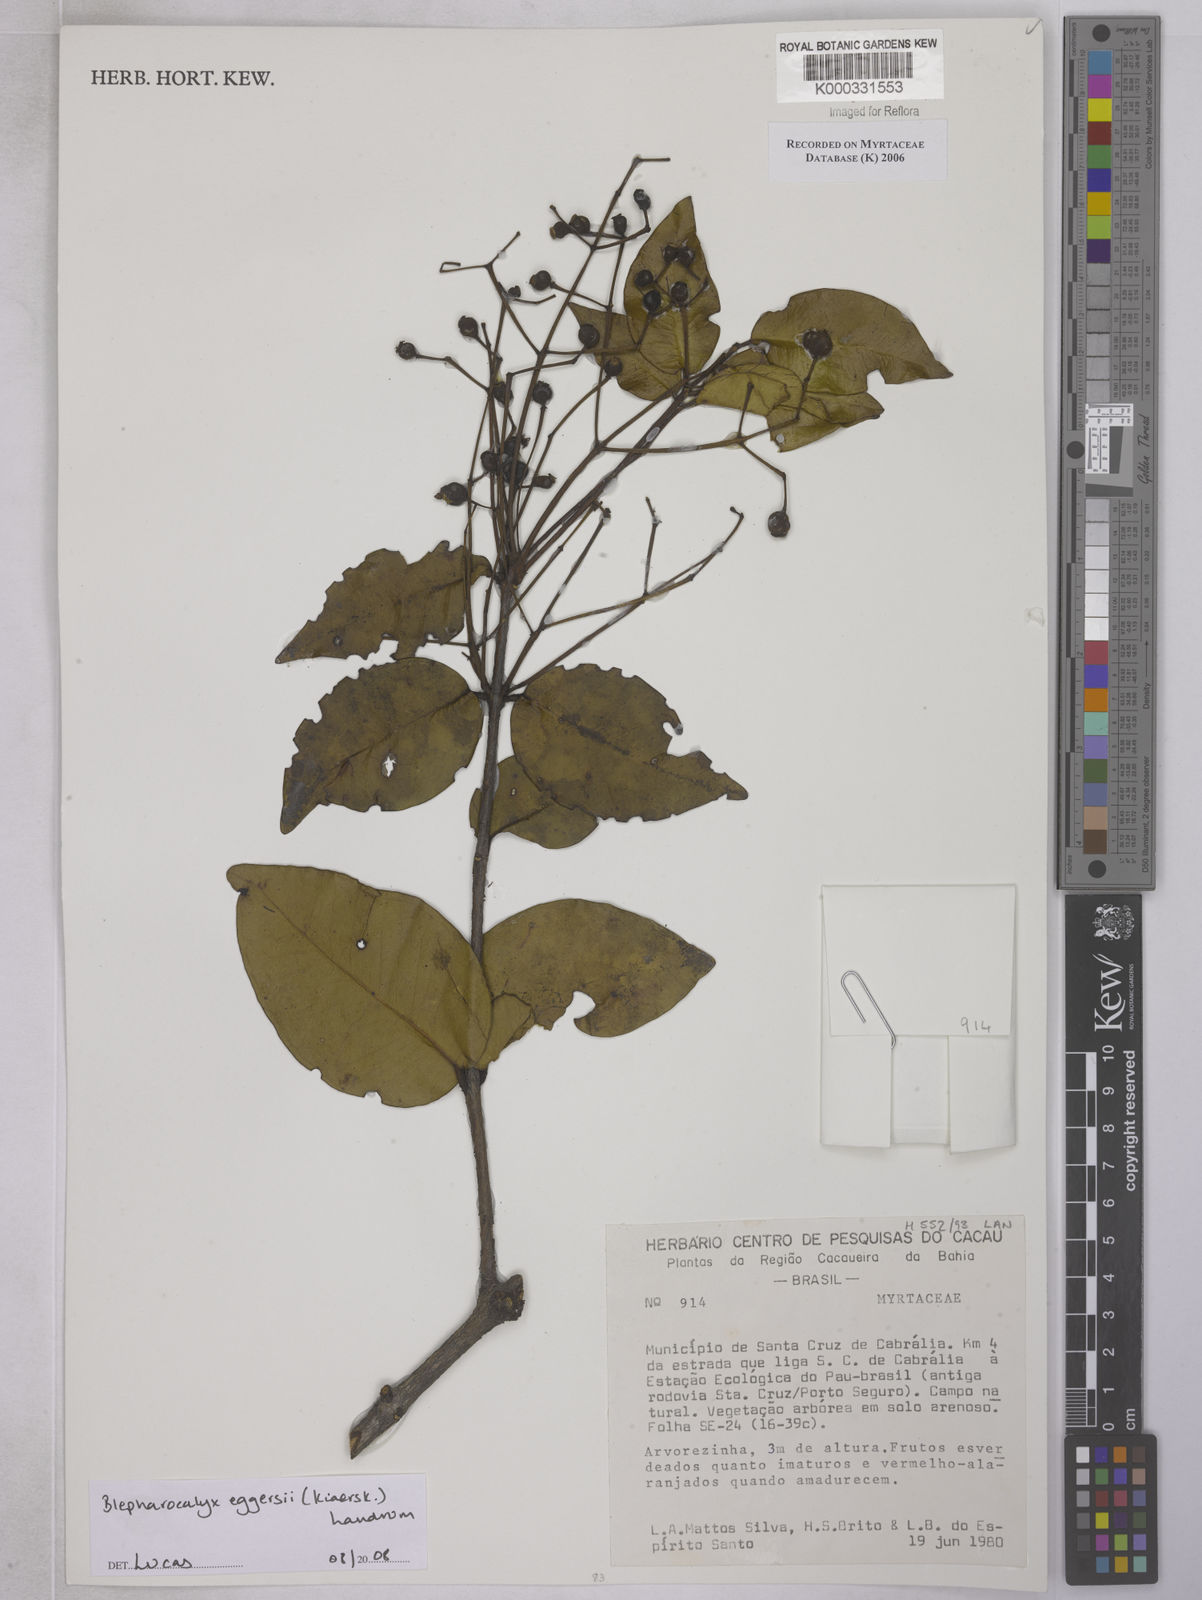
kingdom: Plantae
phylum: Tracheophyta
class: Magnoliopsida
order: Myrtales
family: Myrtaceae
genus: Myrcia
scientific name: Myrcia
